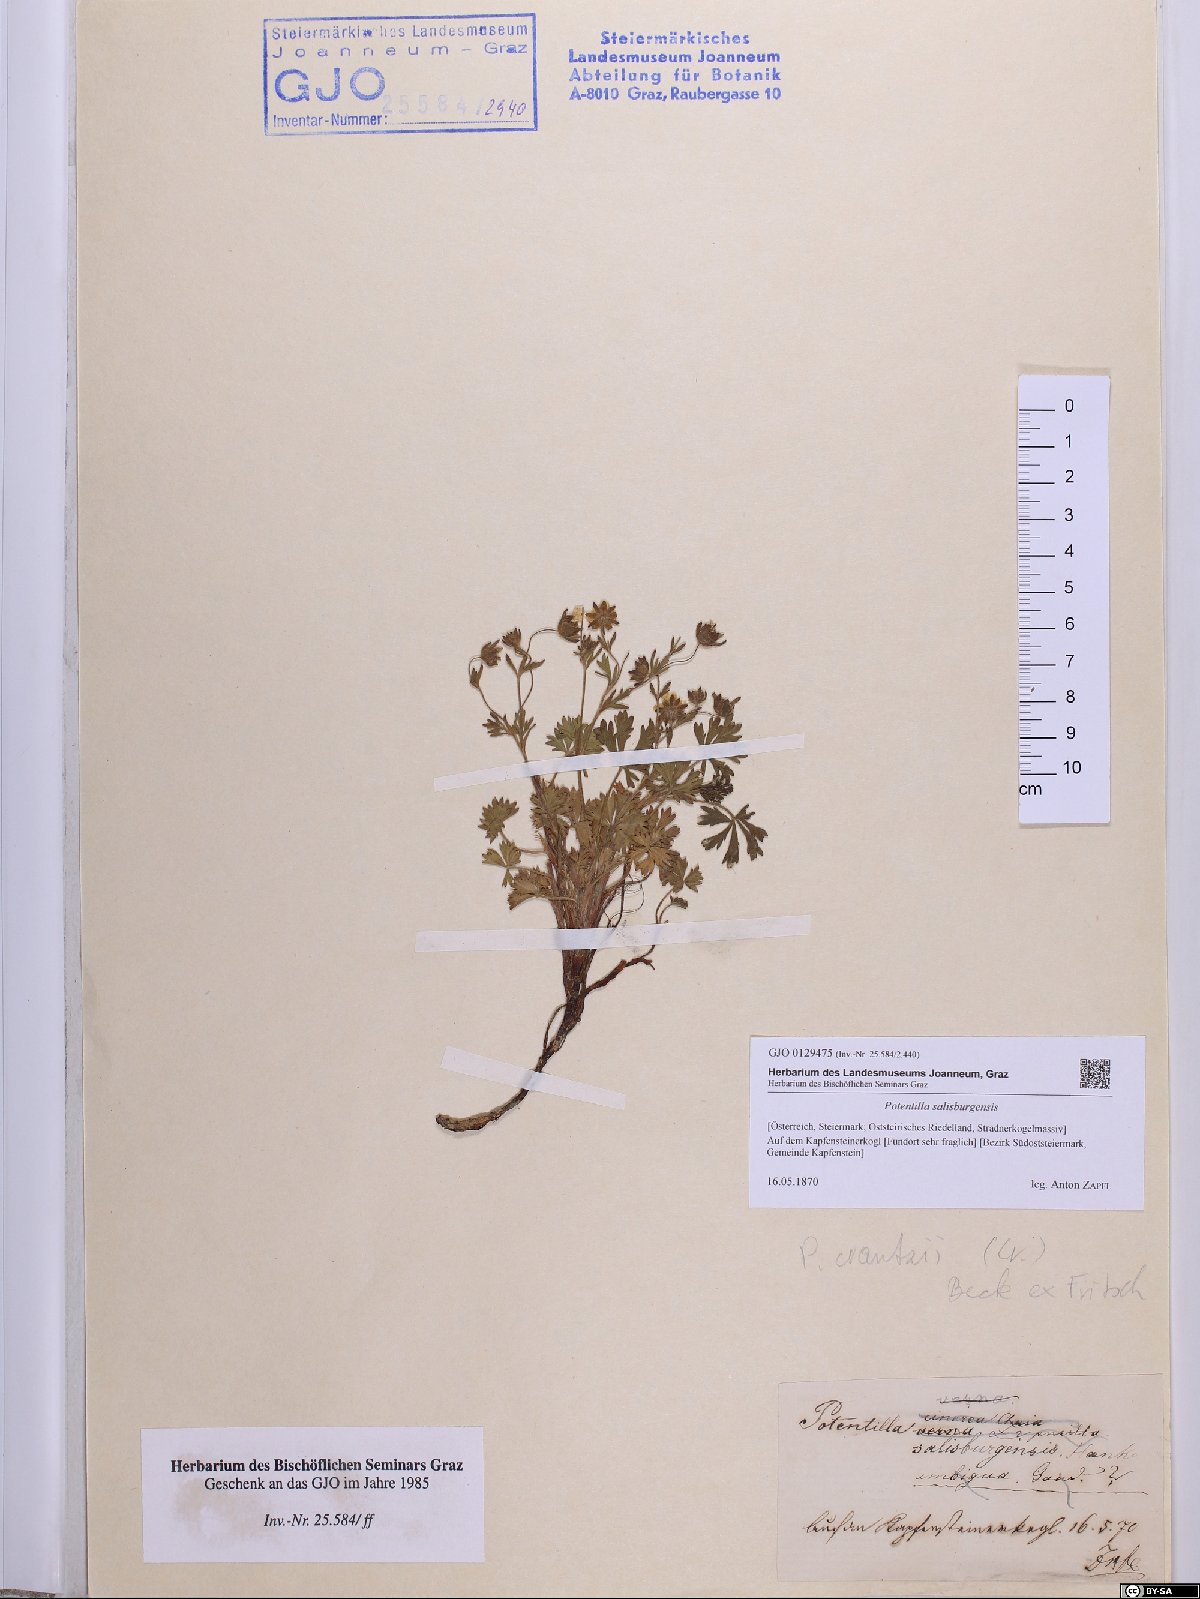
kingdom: Plantae
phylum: Tracheophyta
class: Magnoliopsida
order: Rosales
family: Rosaceae
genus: Potentilla
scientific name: Potentilla crantzii
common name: Alpine cinquefoil
